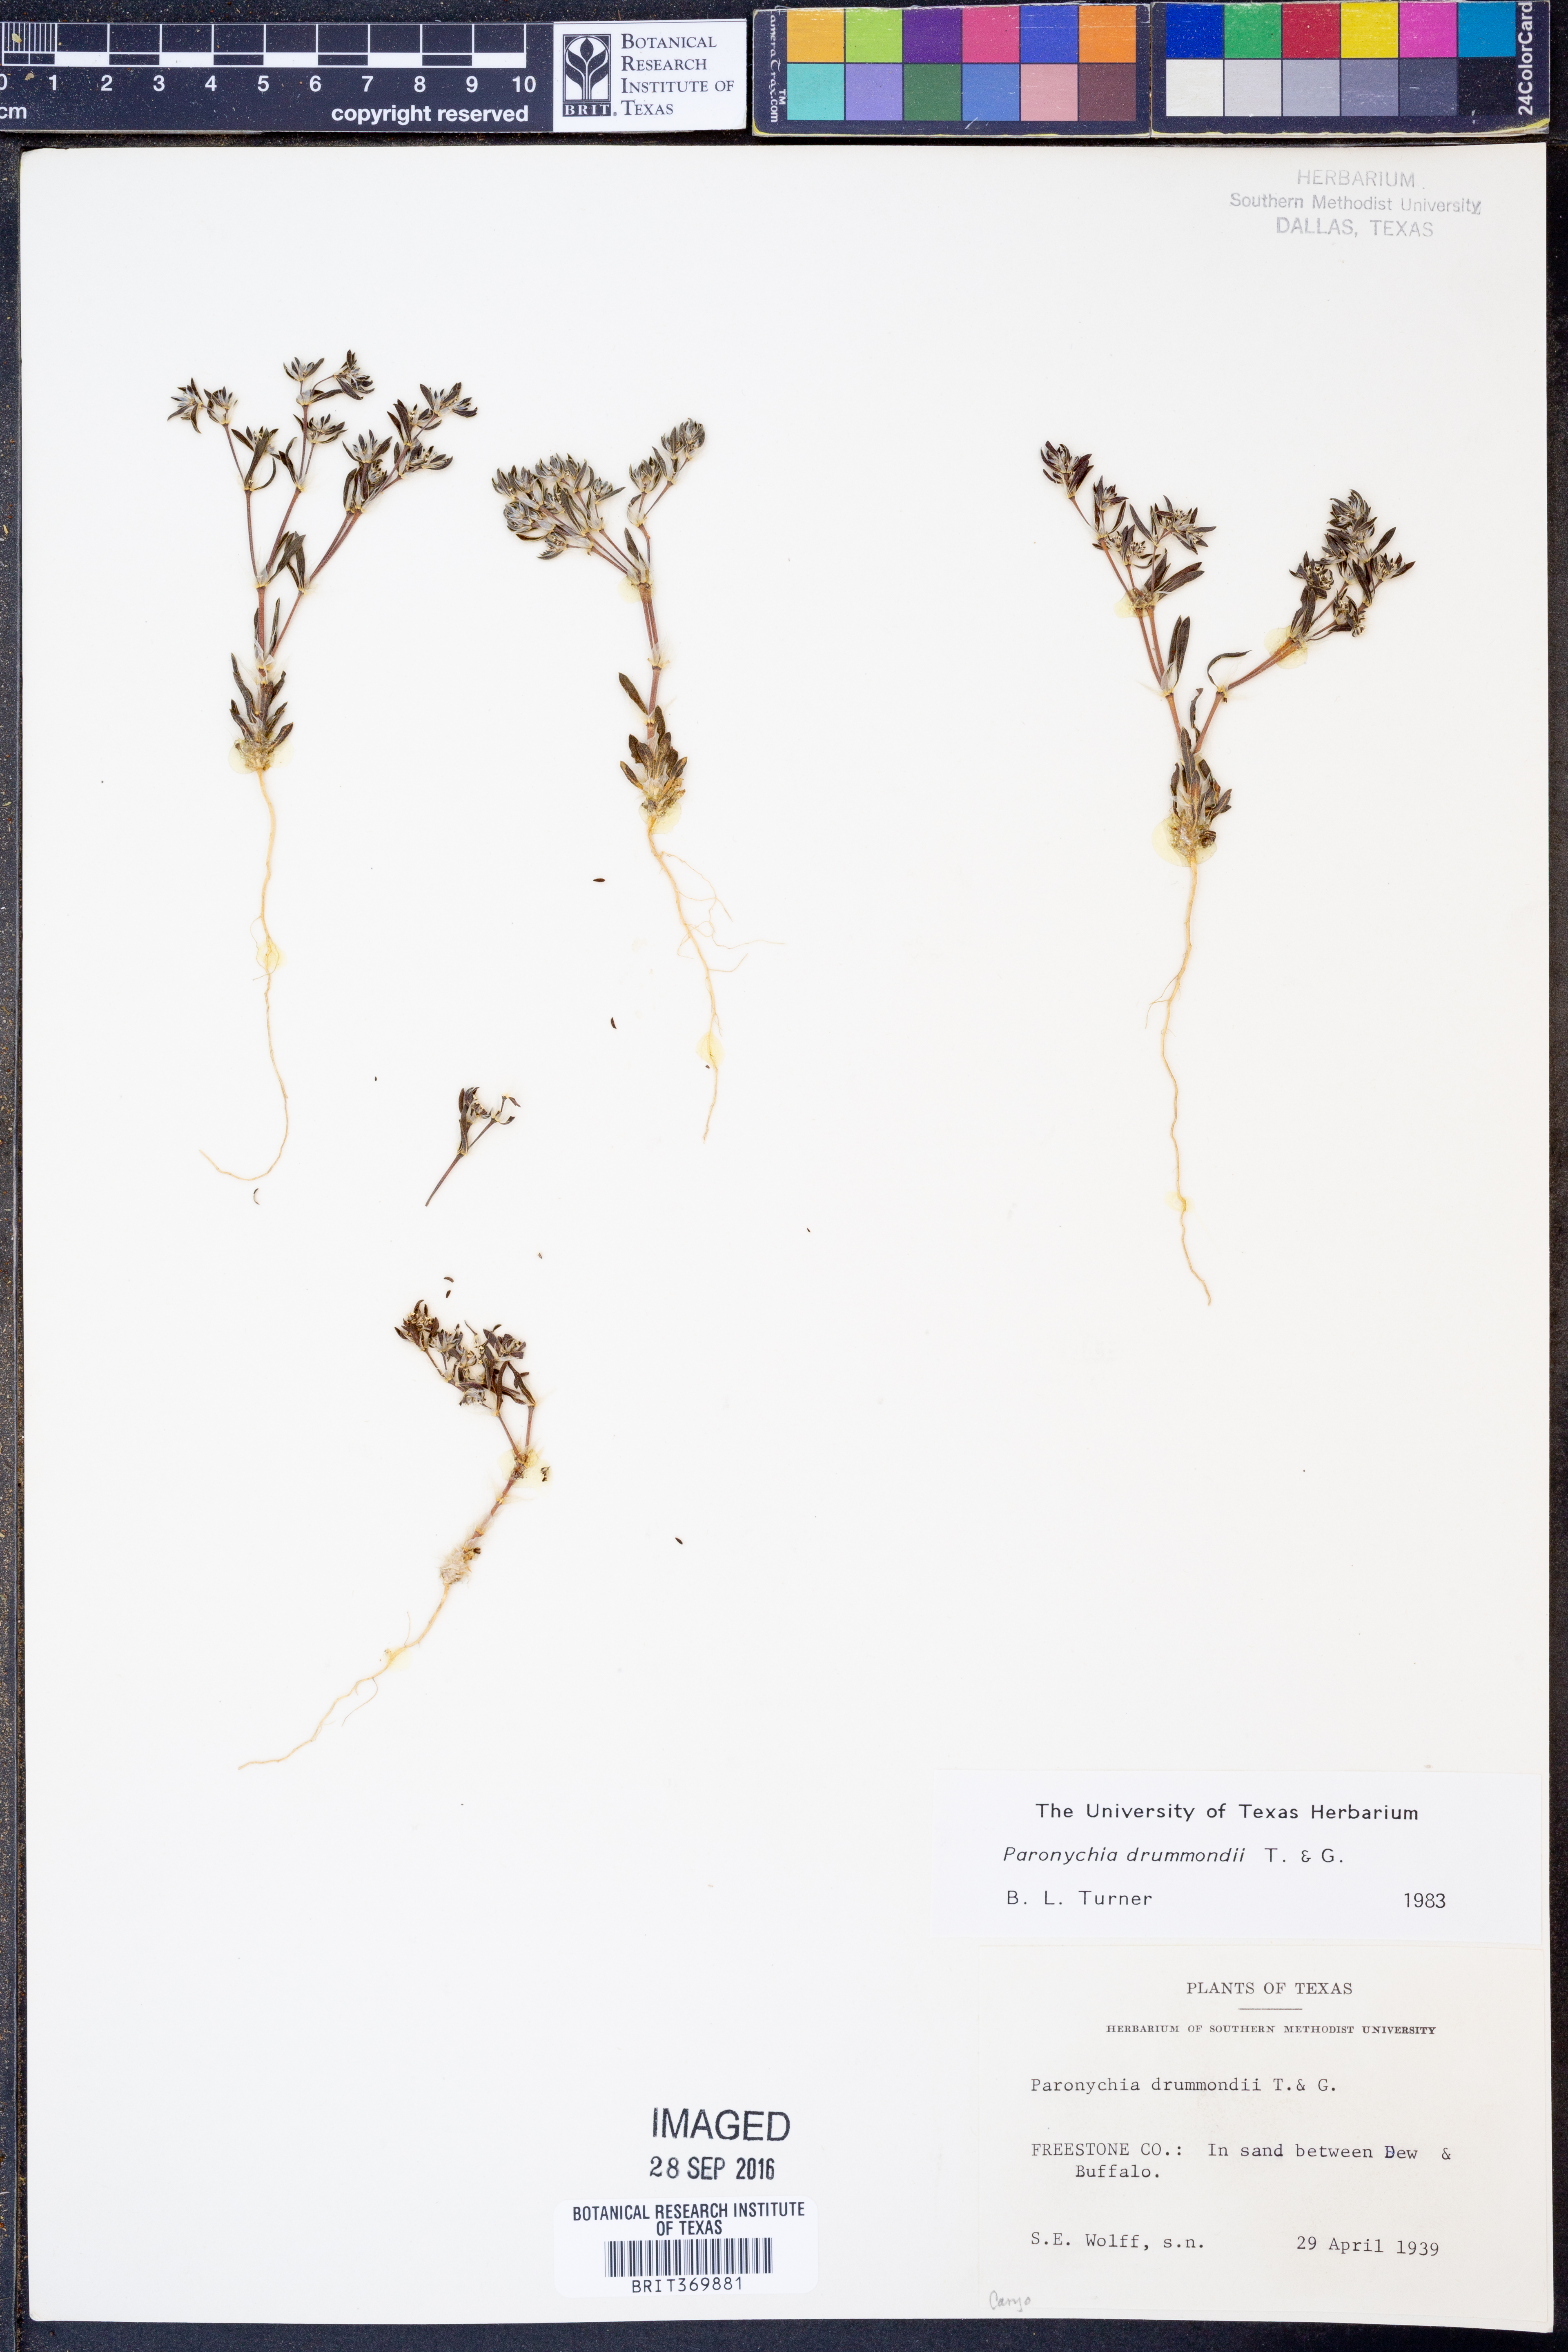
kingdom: Plantae
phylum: Tracheophyta
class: Magnoliopsida
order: Caryophyllales
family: Caryophyllaceae
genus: Paronychia
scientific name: Paronychia drummondii
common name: Drummond's nailwort
